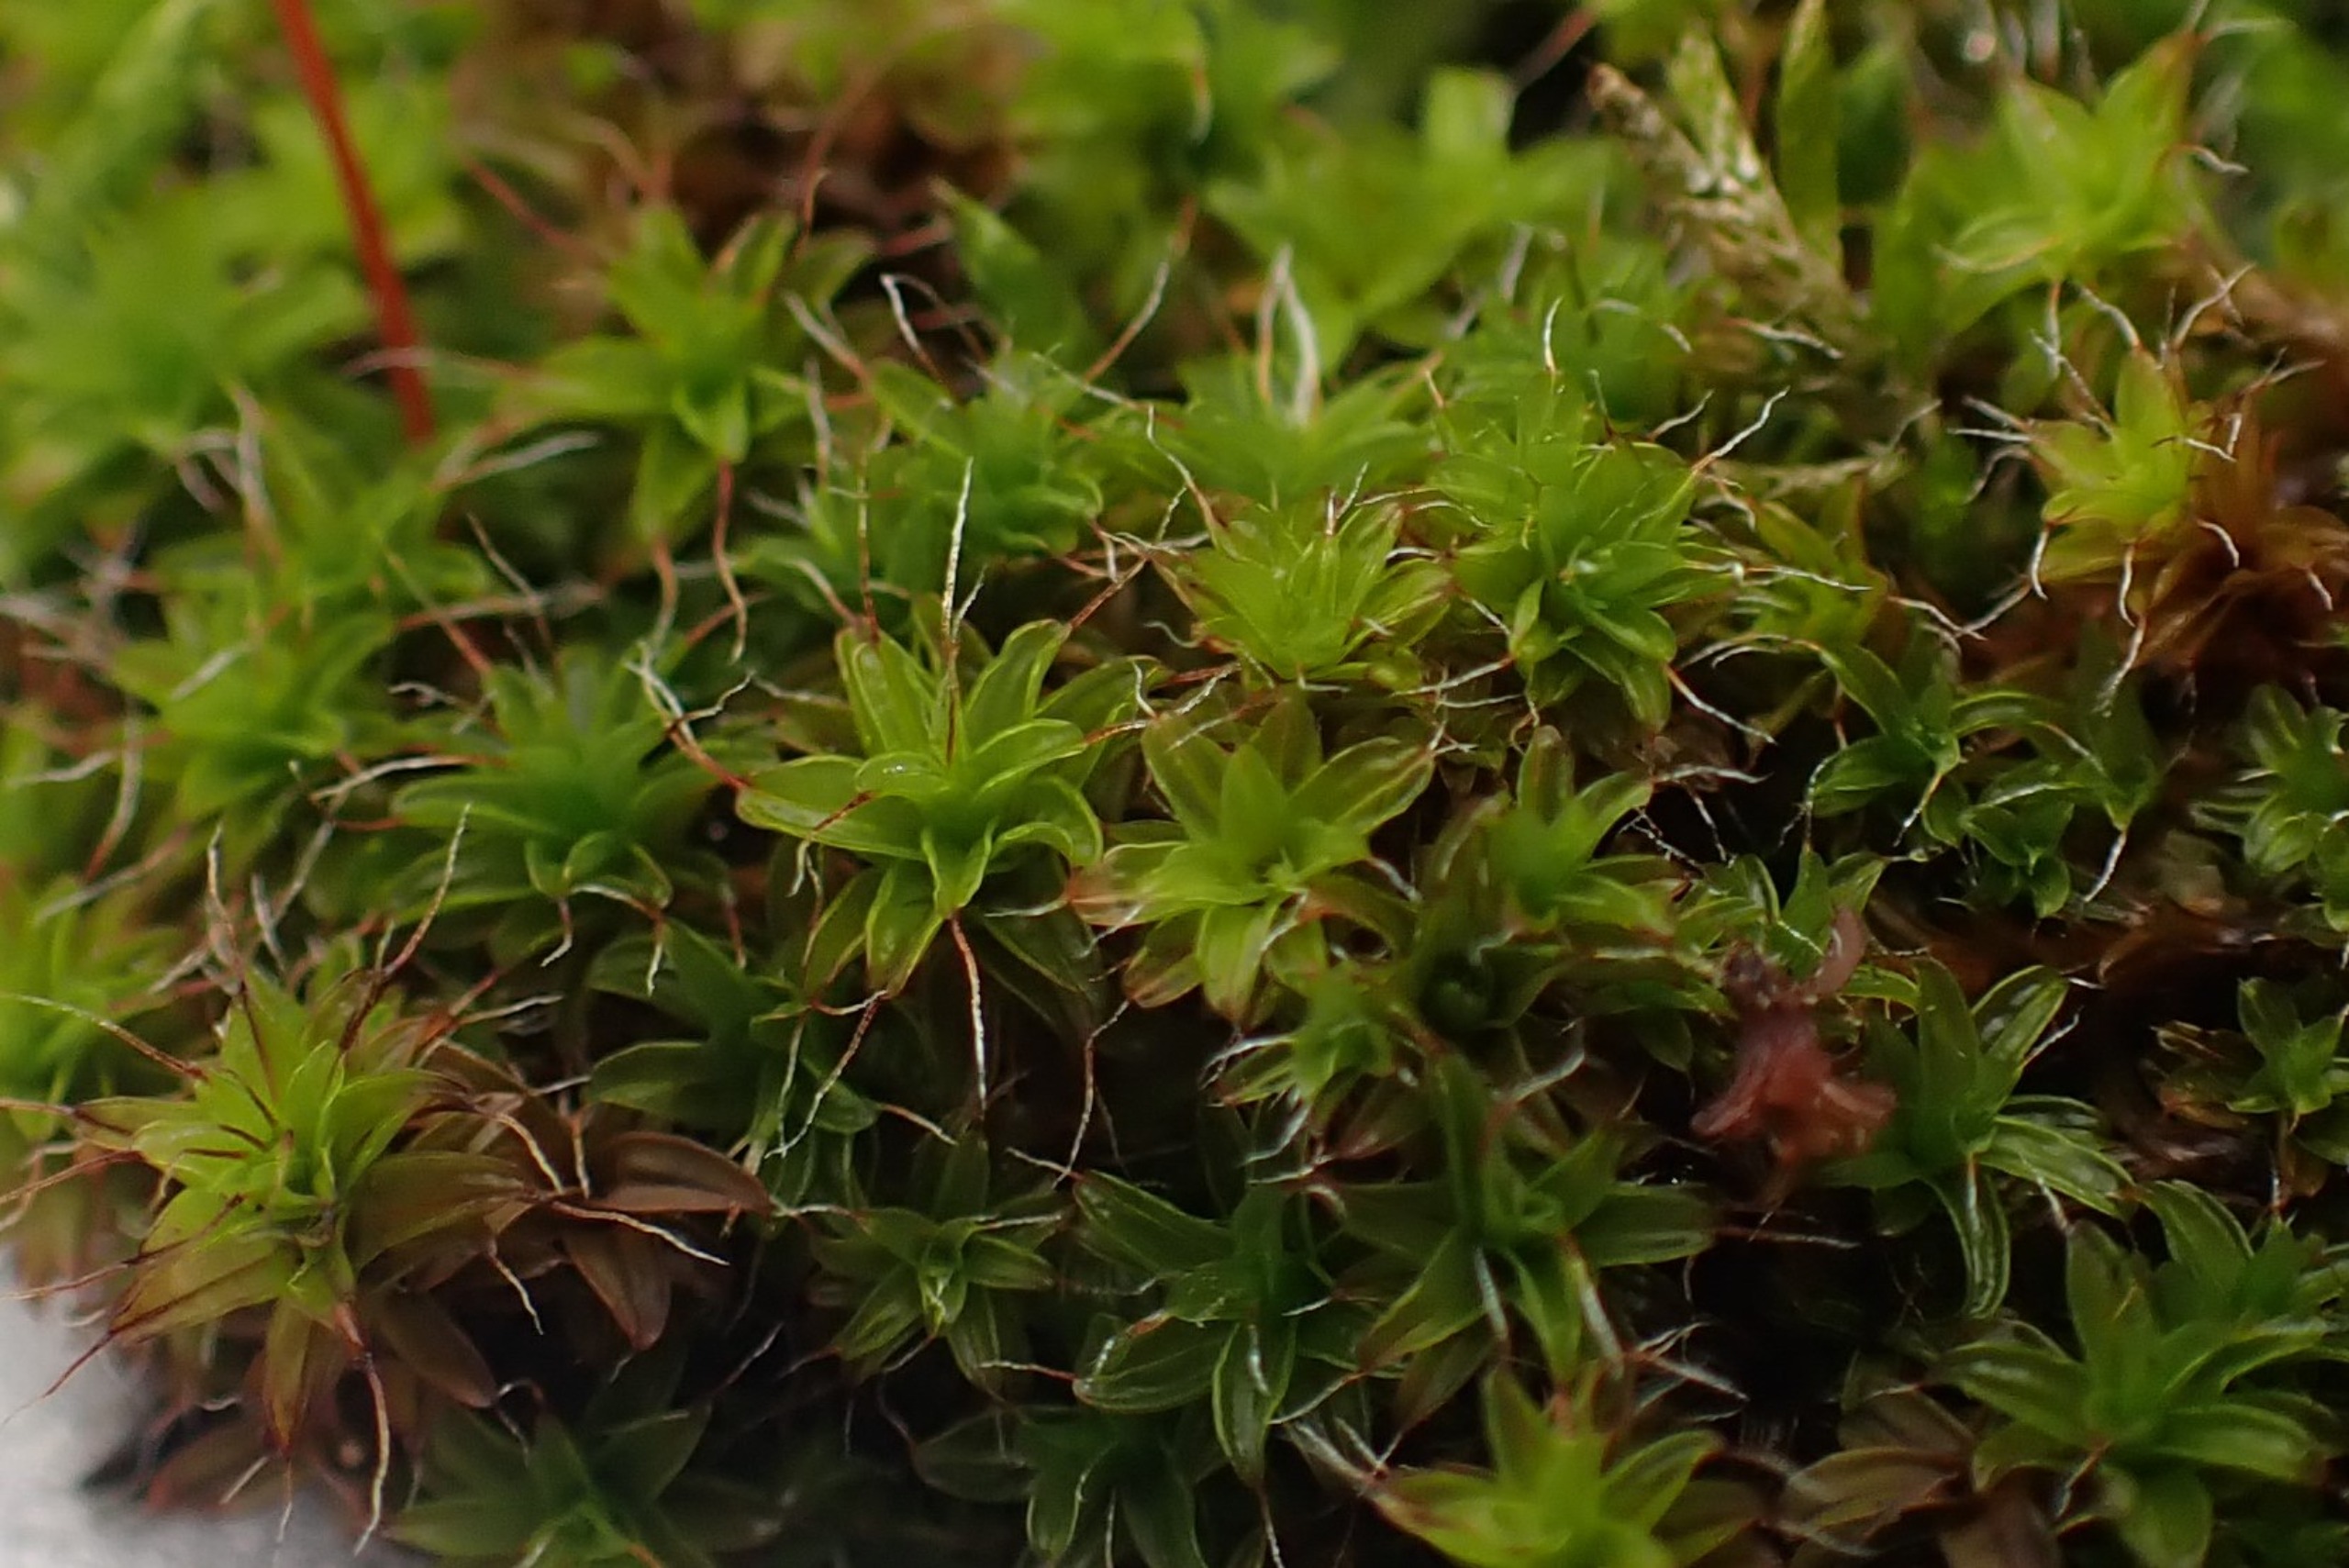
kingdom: Plantae
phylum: Bryophyta
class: Bryopsida
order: Pottiales
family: Pottiaceae
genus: Syntrichia
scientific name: Syntrichia ruralis
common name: Tag-hårstjerne
